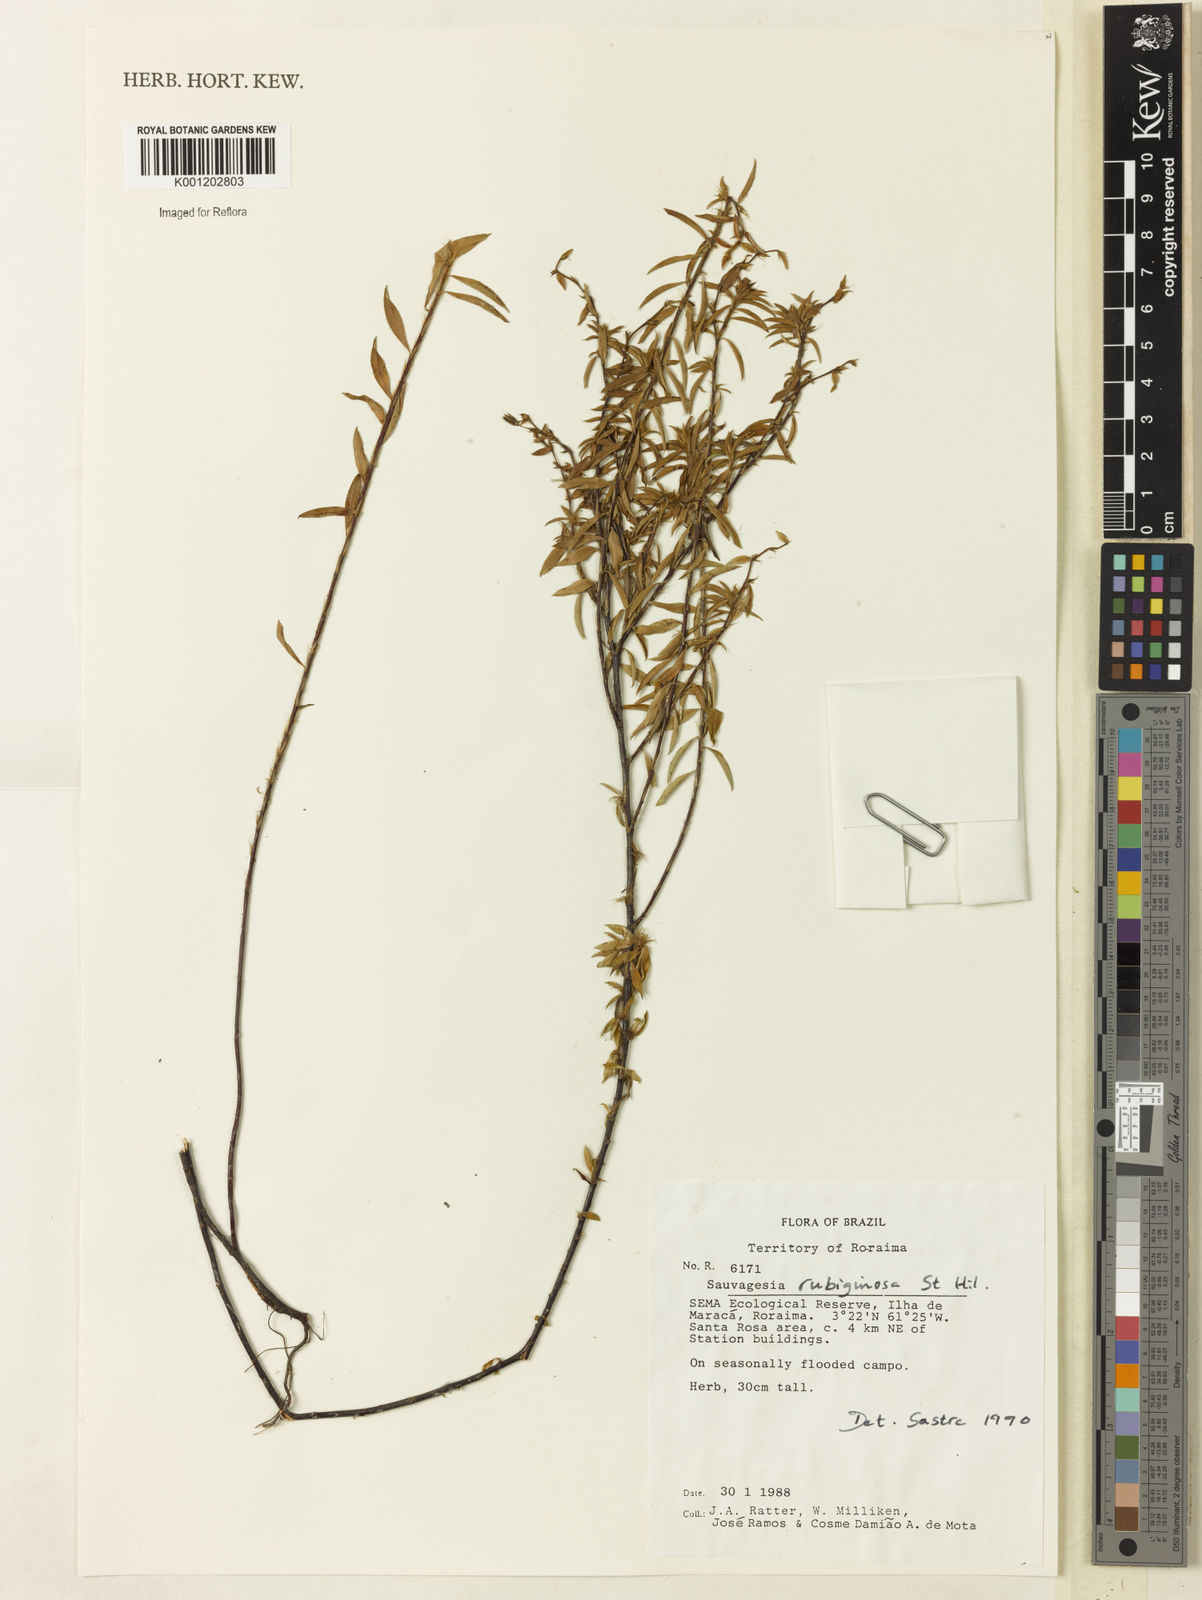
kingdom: Plantae
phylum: Tracheophyta
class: Magnoliopsida
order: Malpighiales
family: Ochnaceae
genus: Sauvagesia
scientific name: Sauvagesia rubiginosa
